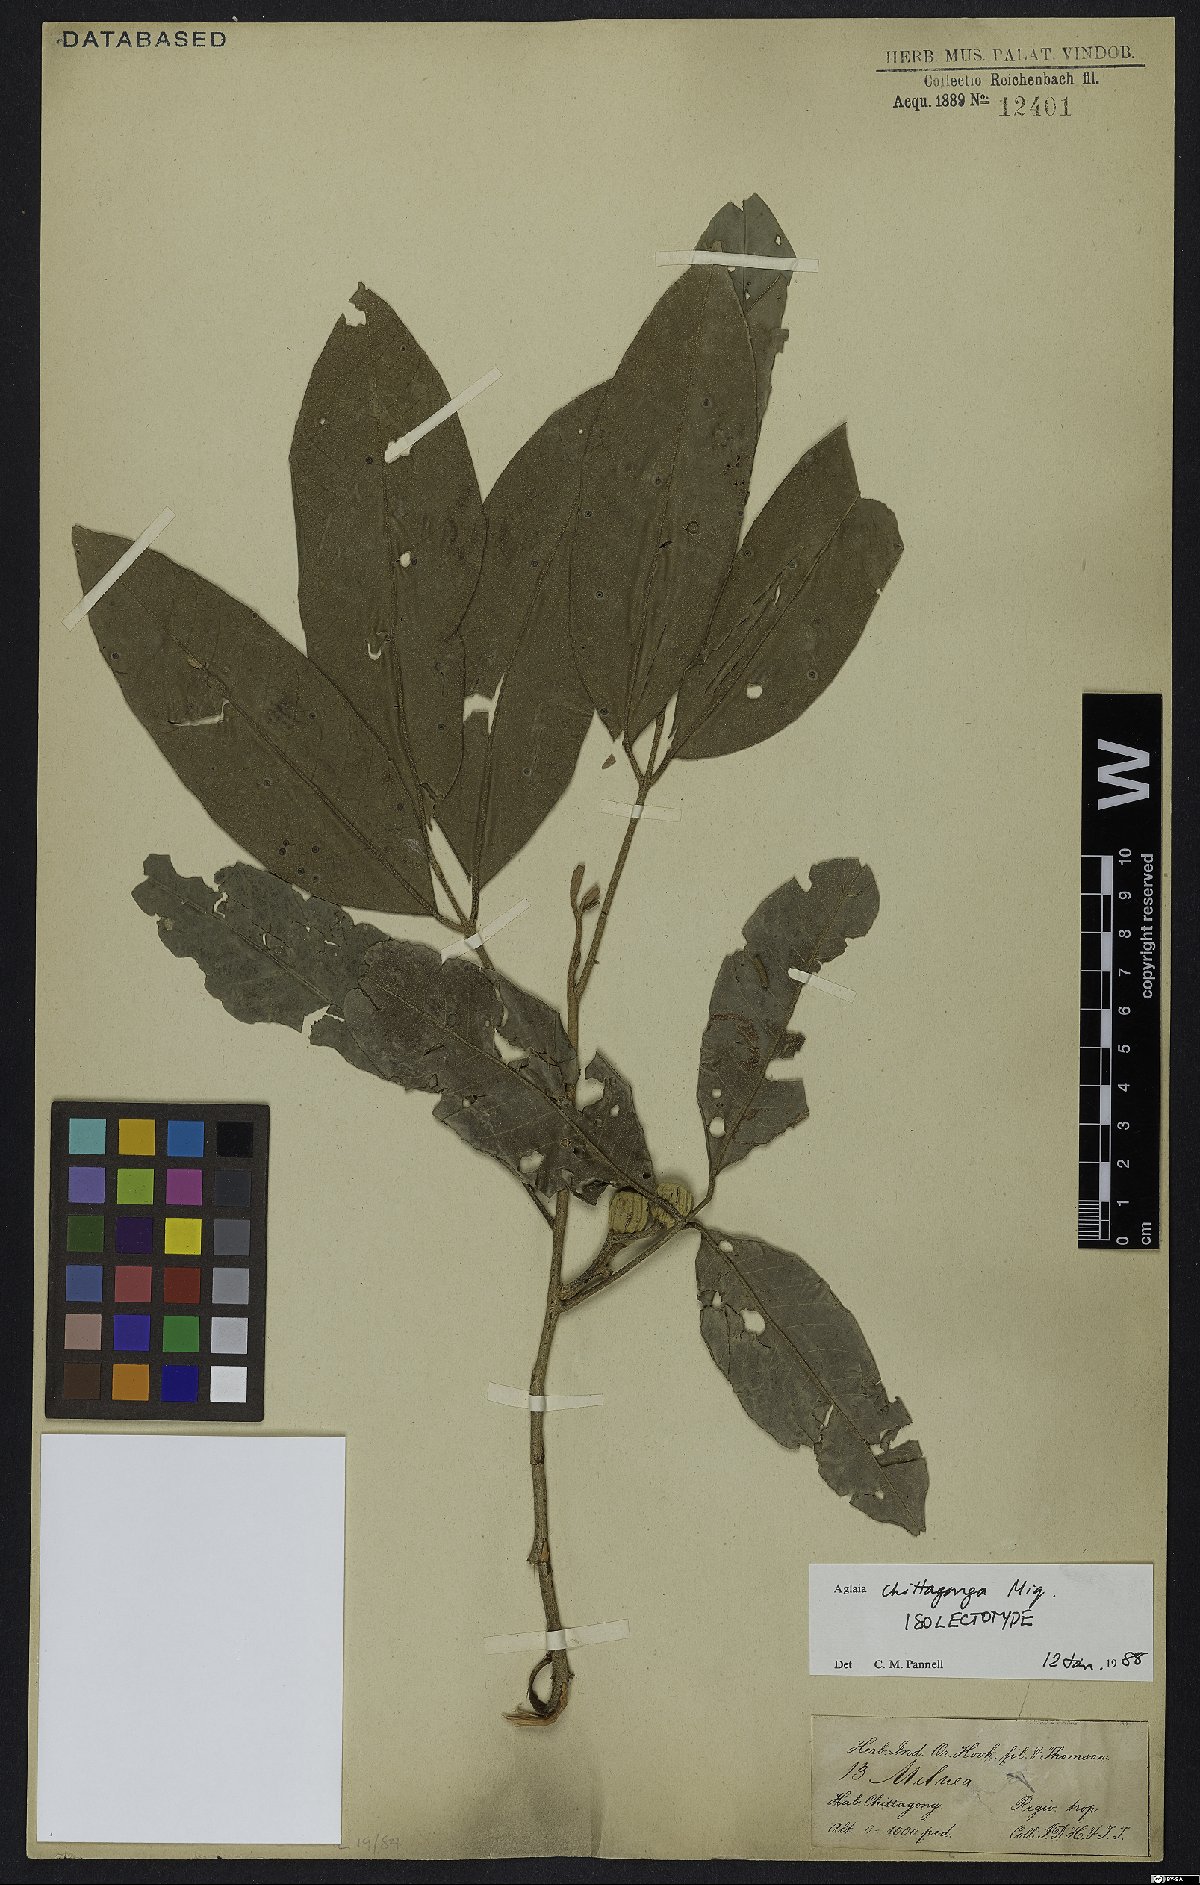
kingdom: Plantae
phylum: Tracheophyta
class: Magnoliopsida
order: Sapindales
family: Meliaceae
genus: Aglaia
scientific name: Aglaia chittagonga
